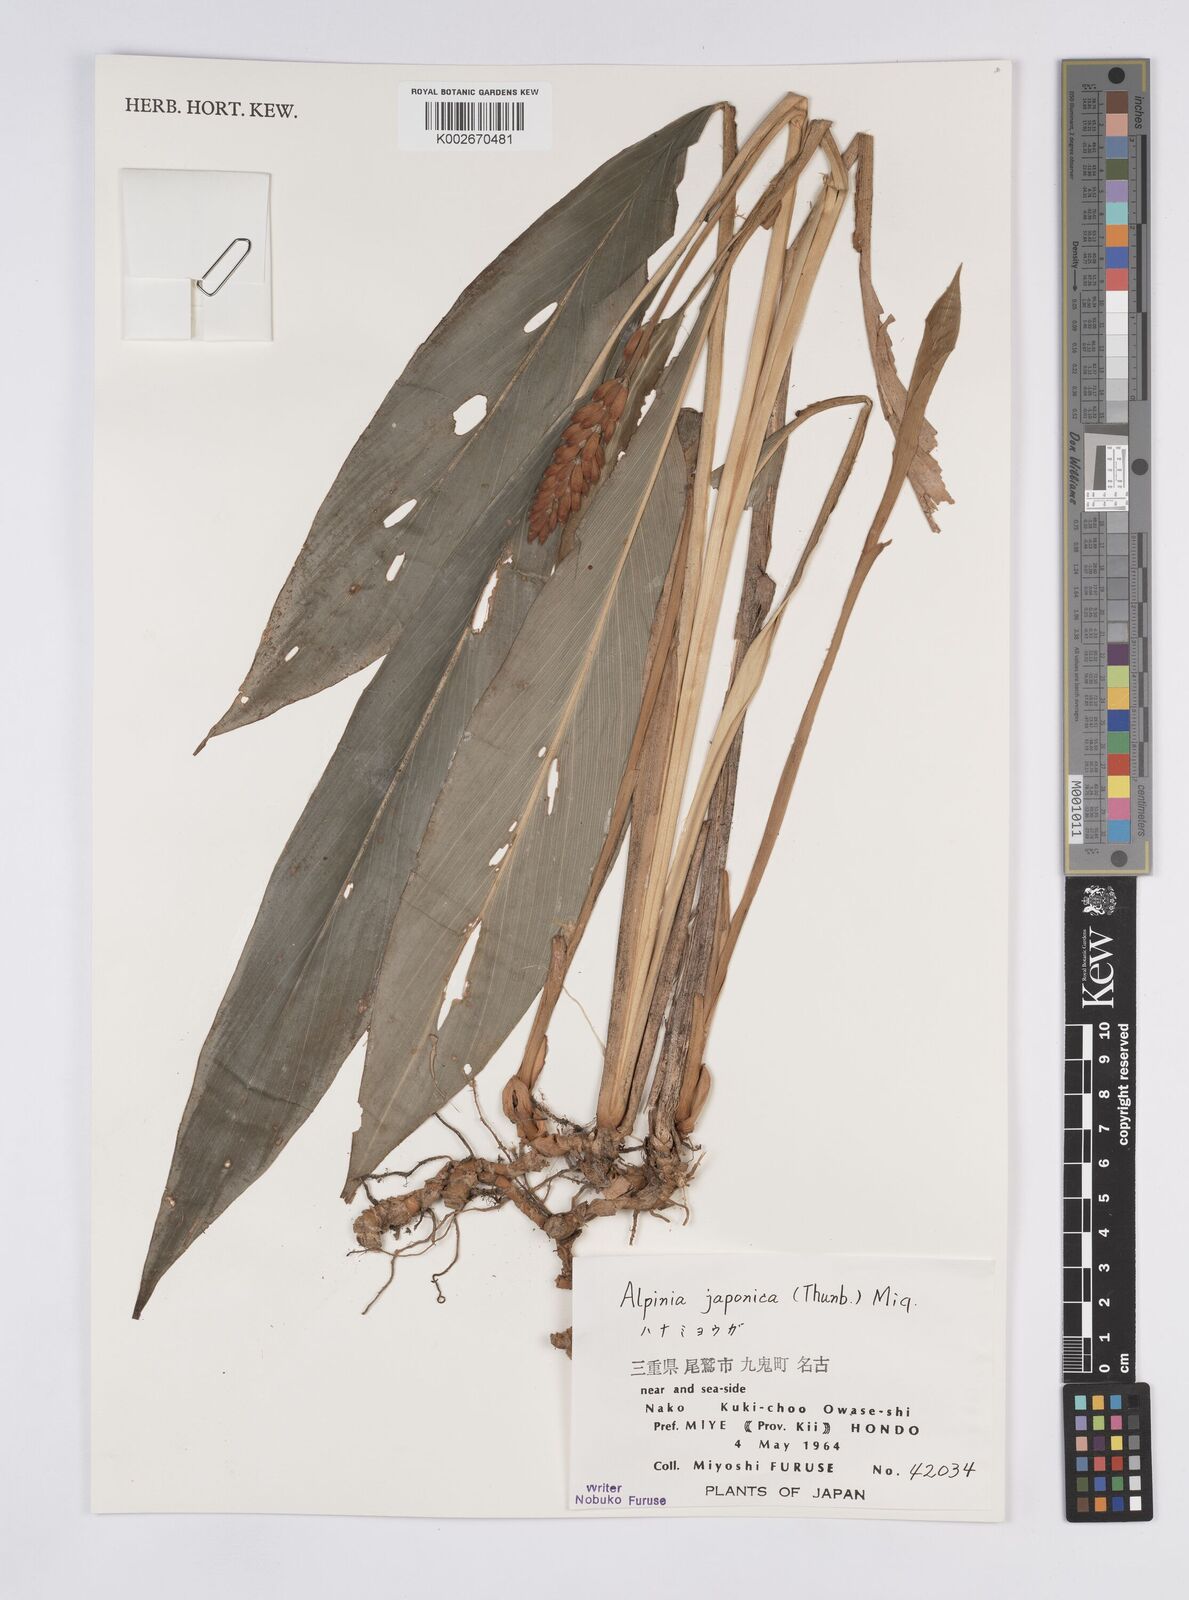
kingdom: Plantae
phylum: Tracheophyta
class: Liliopsida
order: Zingiberales
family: Zingiberaceae
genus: Alpinia
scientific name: Alpinia japonica
